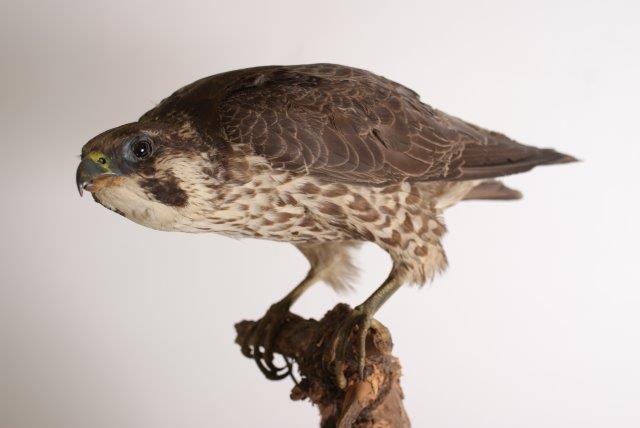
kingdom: Animalia
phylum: Chordata
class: Aves
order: Falconiformes
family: Falconidae
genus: Falco
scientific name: Falco peregrinus
